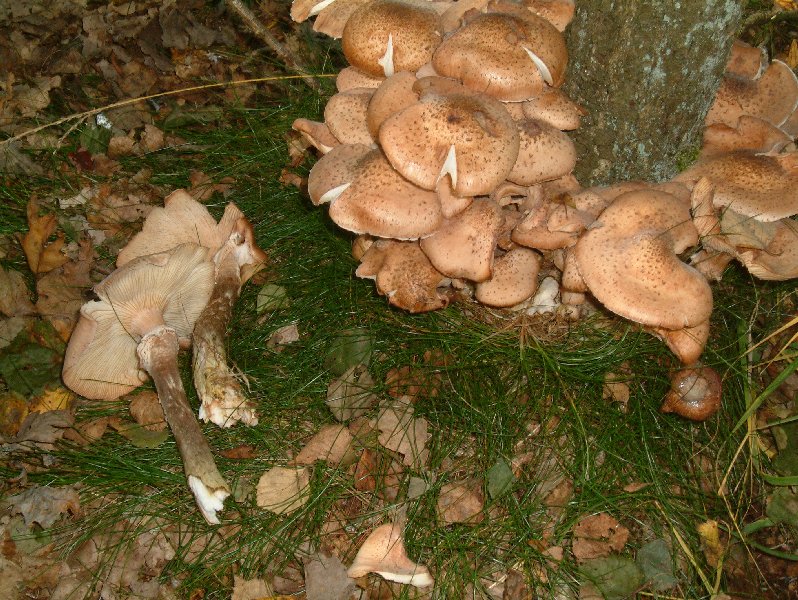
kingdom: Fungi
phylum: Basidiomycota
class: Agaricomycetes
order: Agaricales
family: Physalacriaceae
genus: Armillaria
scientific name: Armillaria ostoyae
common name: mørk honningsvamp
